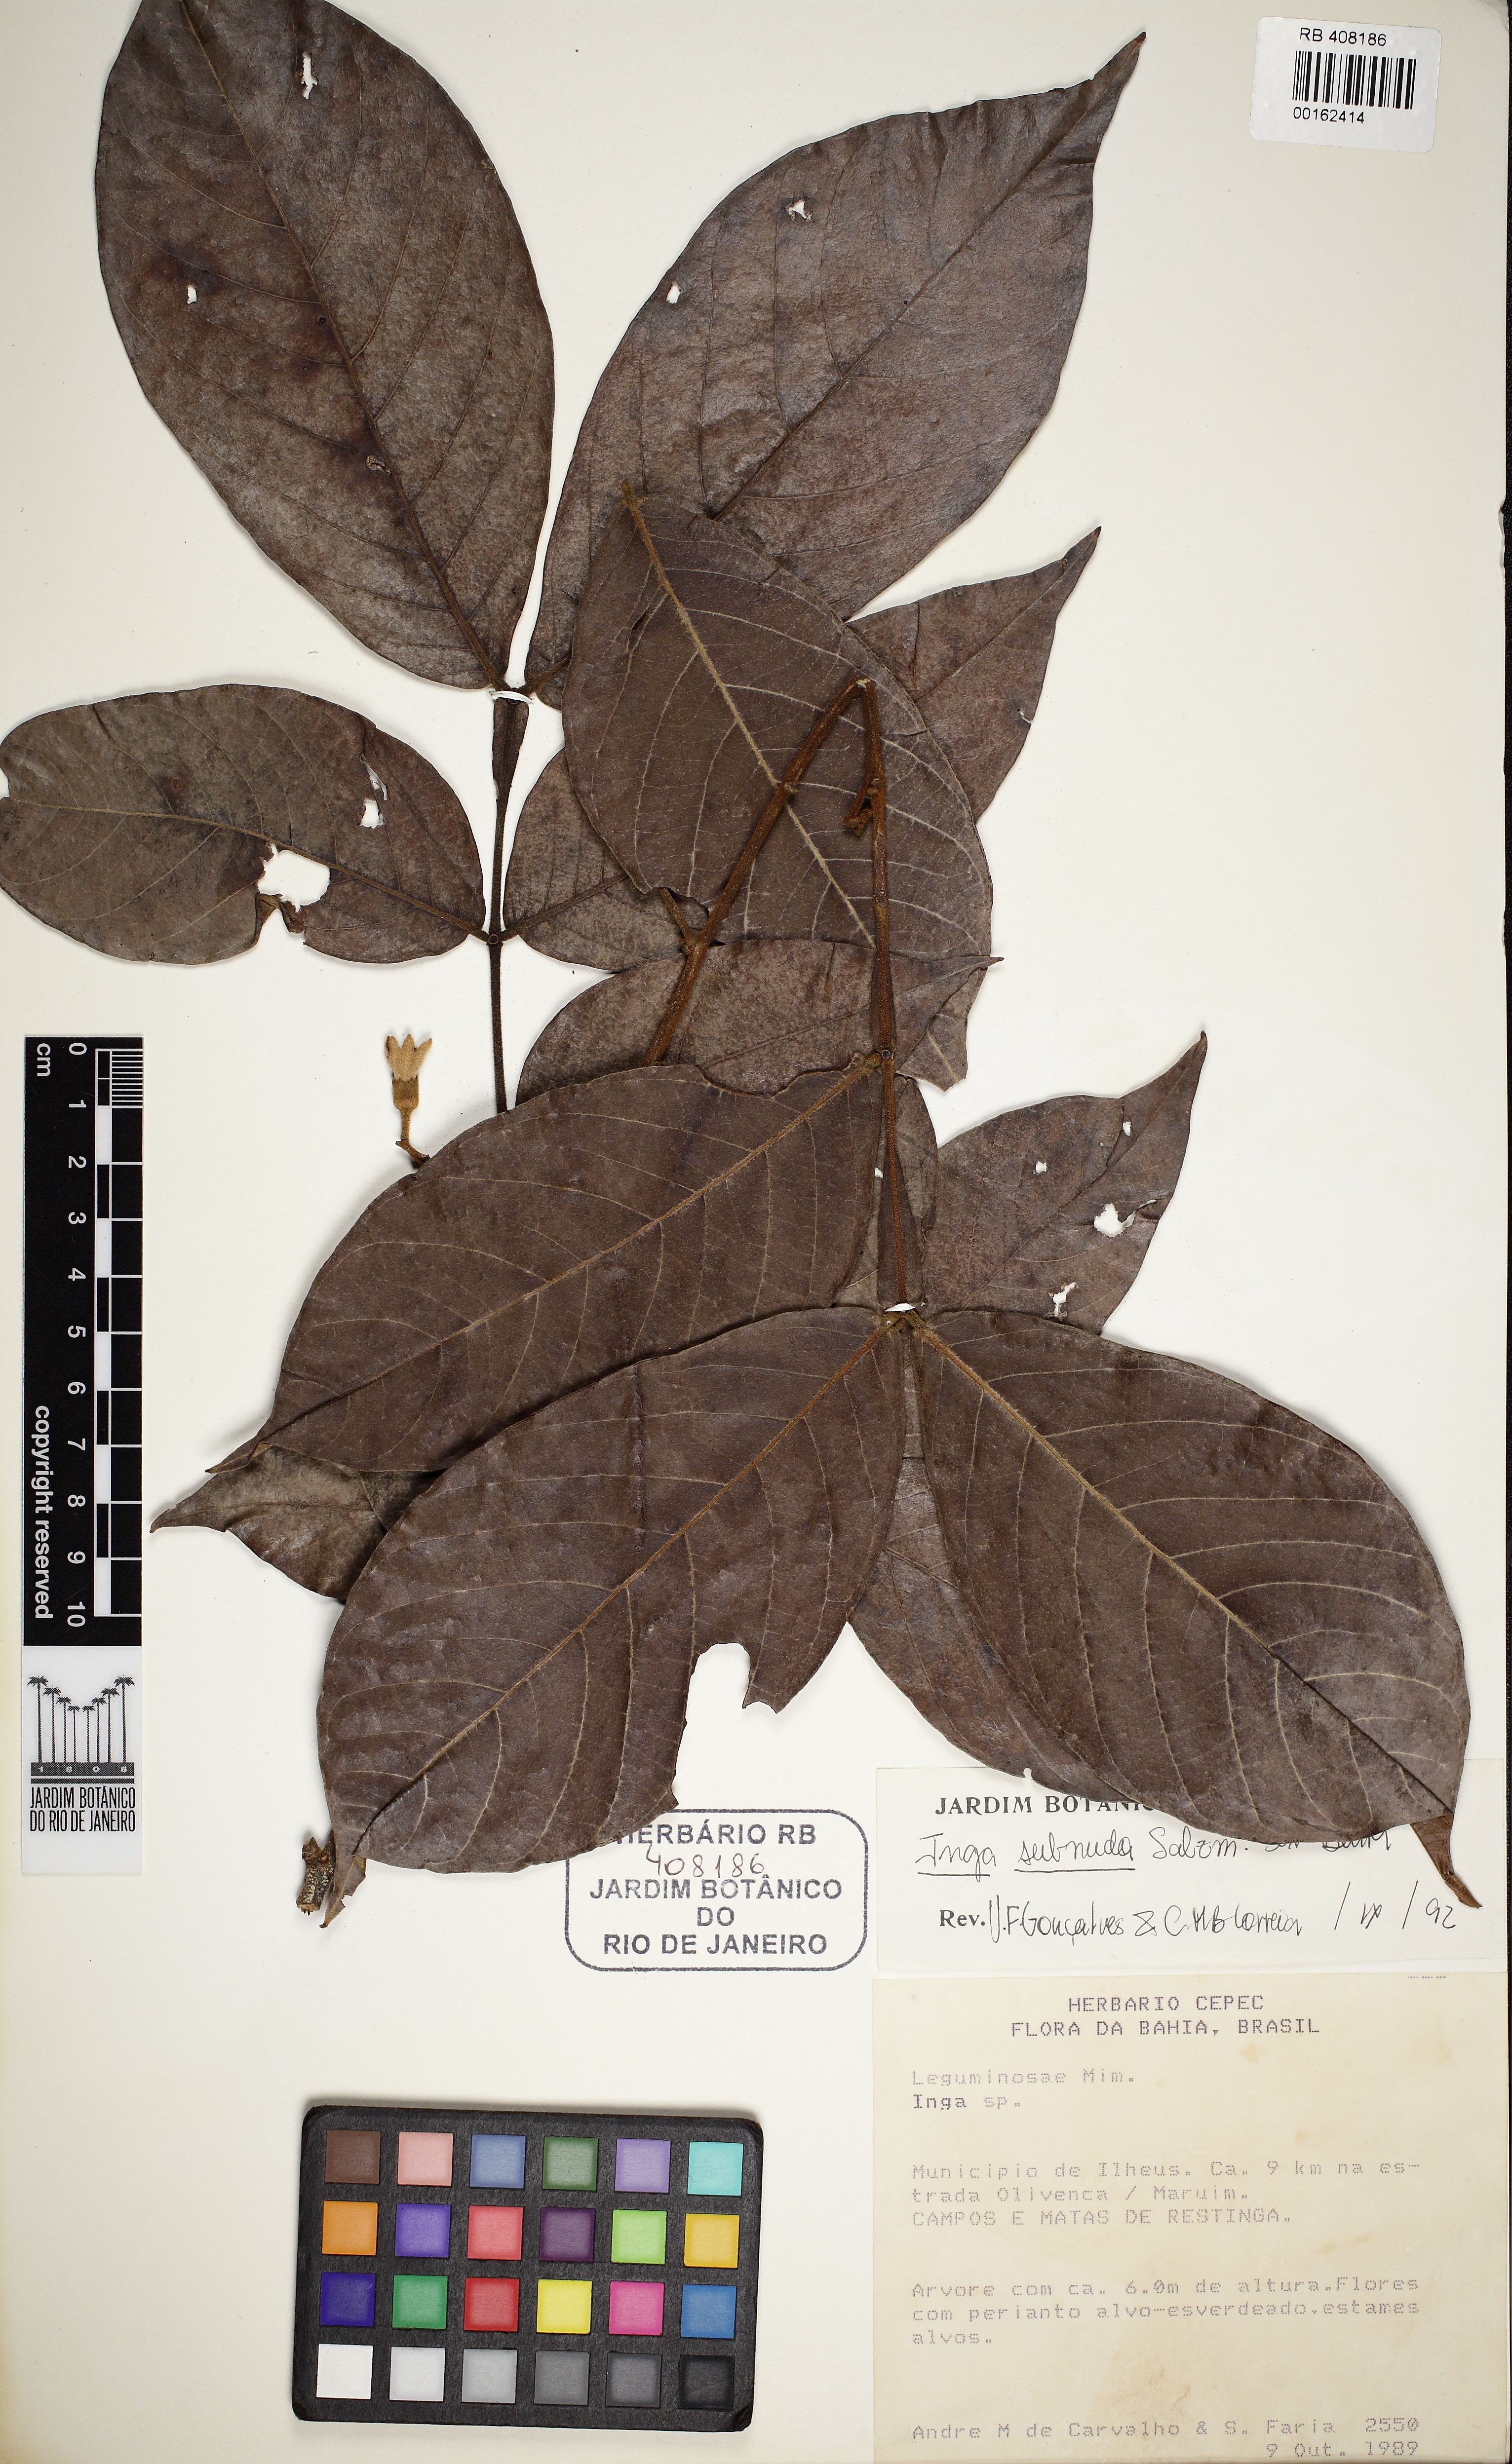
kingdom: Plantae
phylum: Tracheophyta
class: Magnoliopsida
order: Fabales
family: Fabaceae
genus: Inga
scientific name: Inga subnuda
